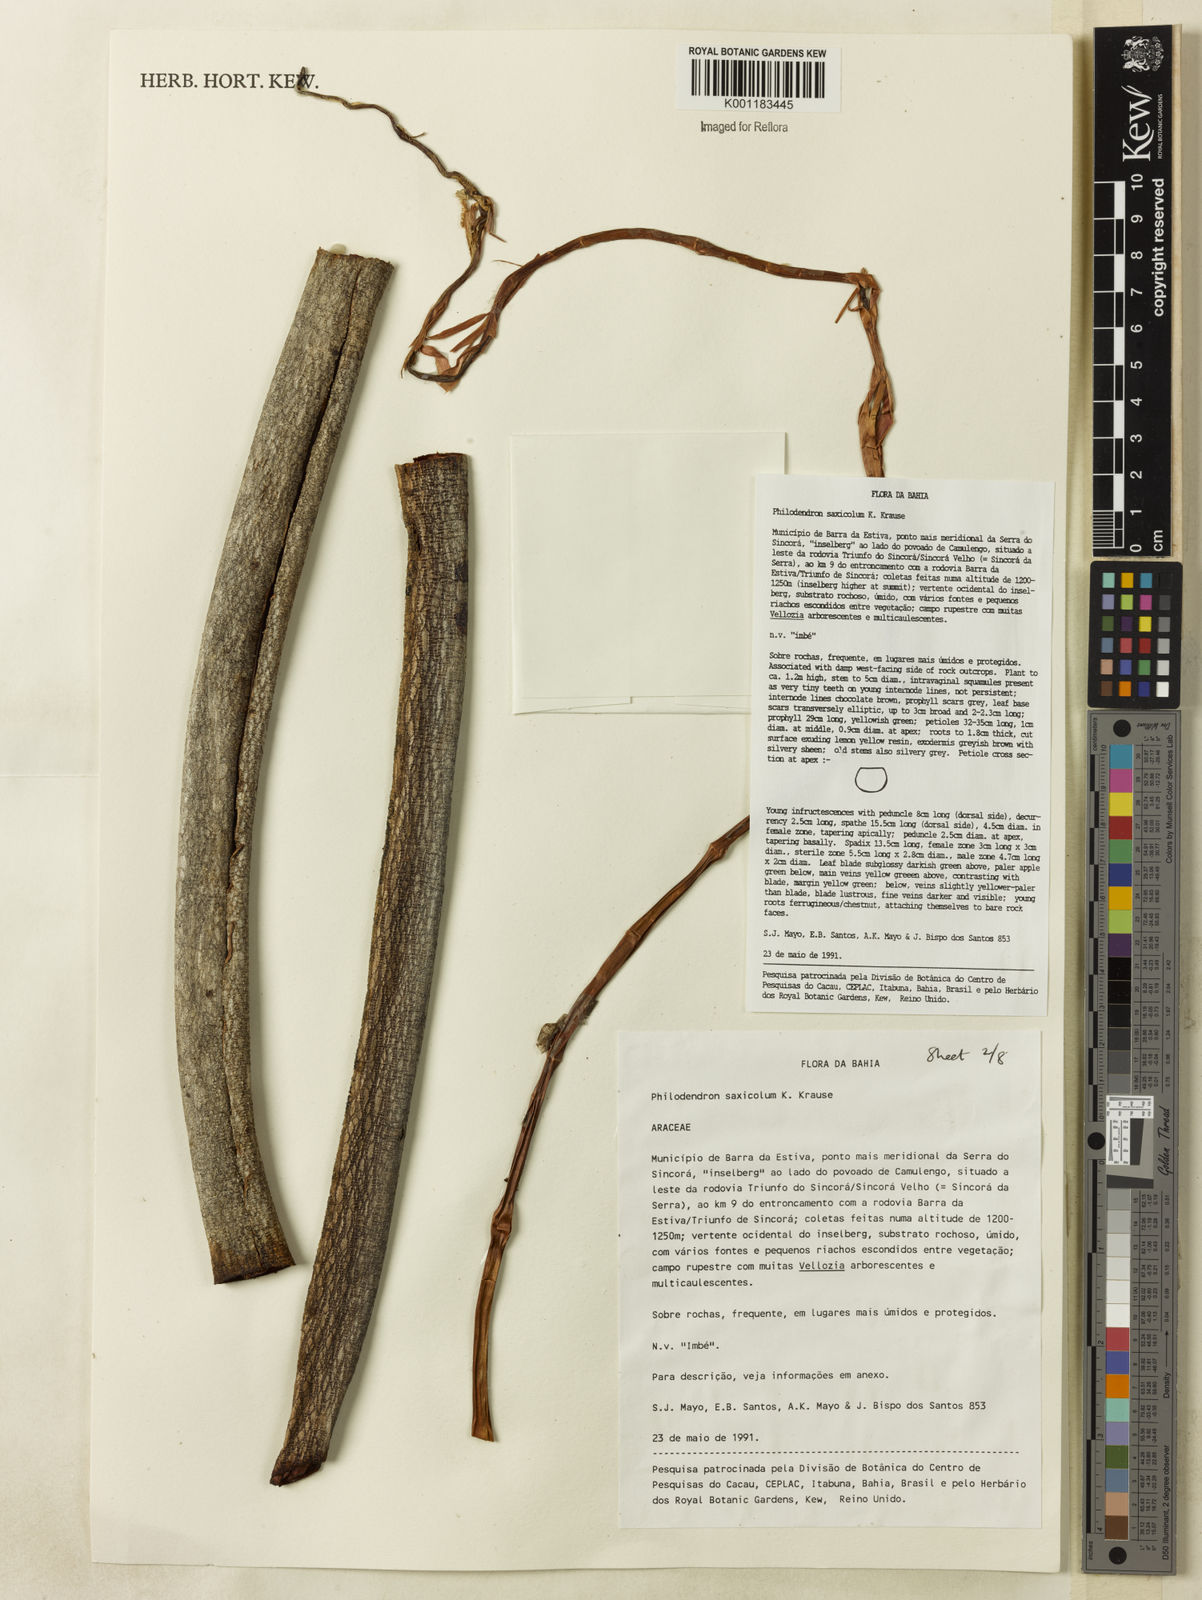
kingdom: Plantae
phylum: Tracheophyta
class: Liliopsida
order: Alismatales
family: Araceae
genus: Thaumatophyllum
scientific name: Thaumatophyllum saxicola
